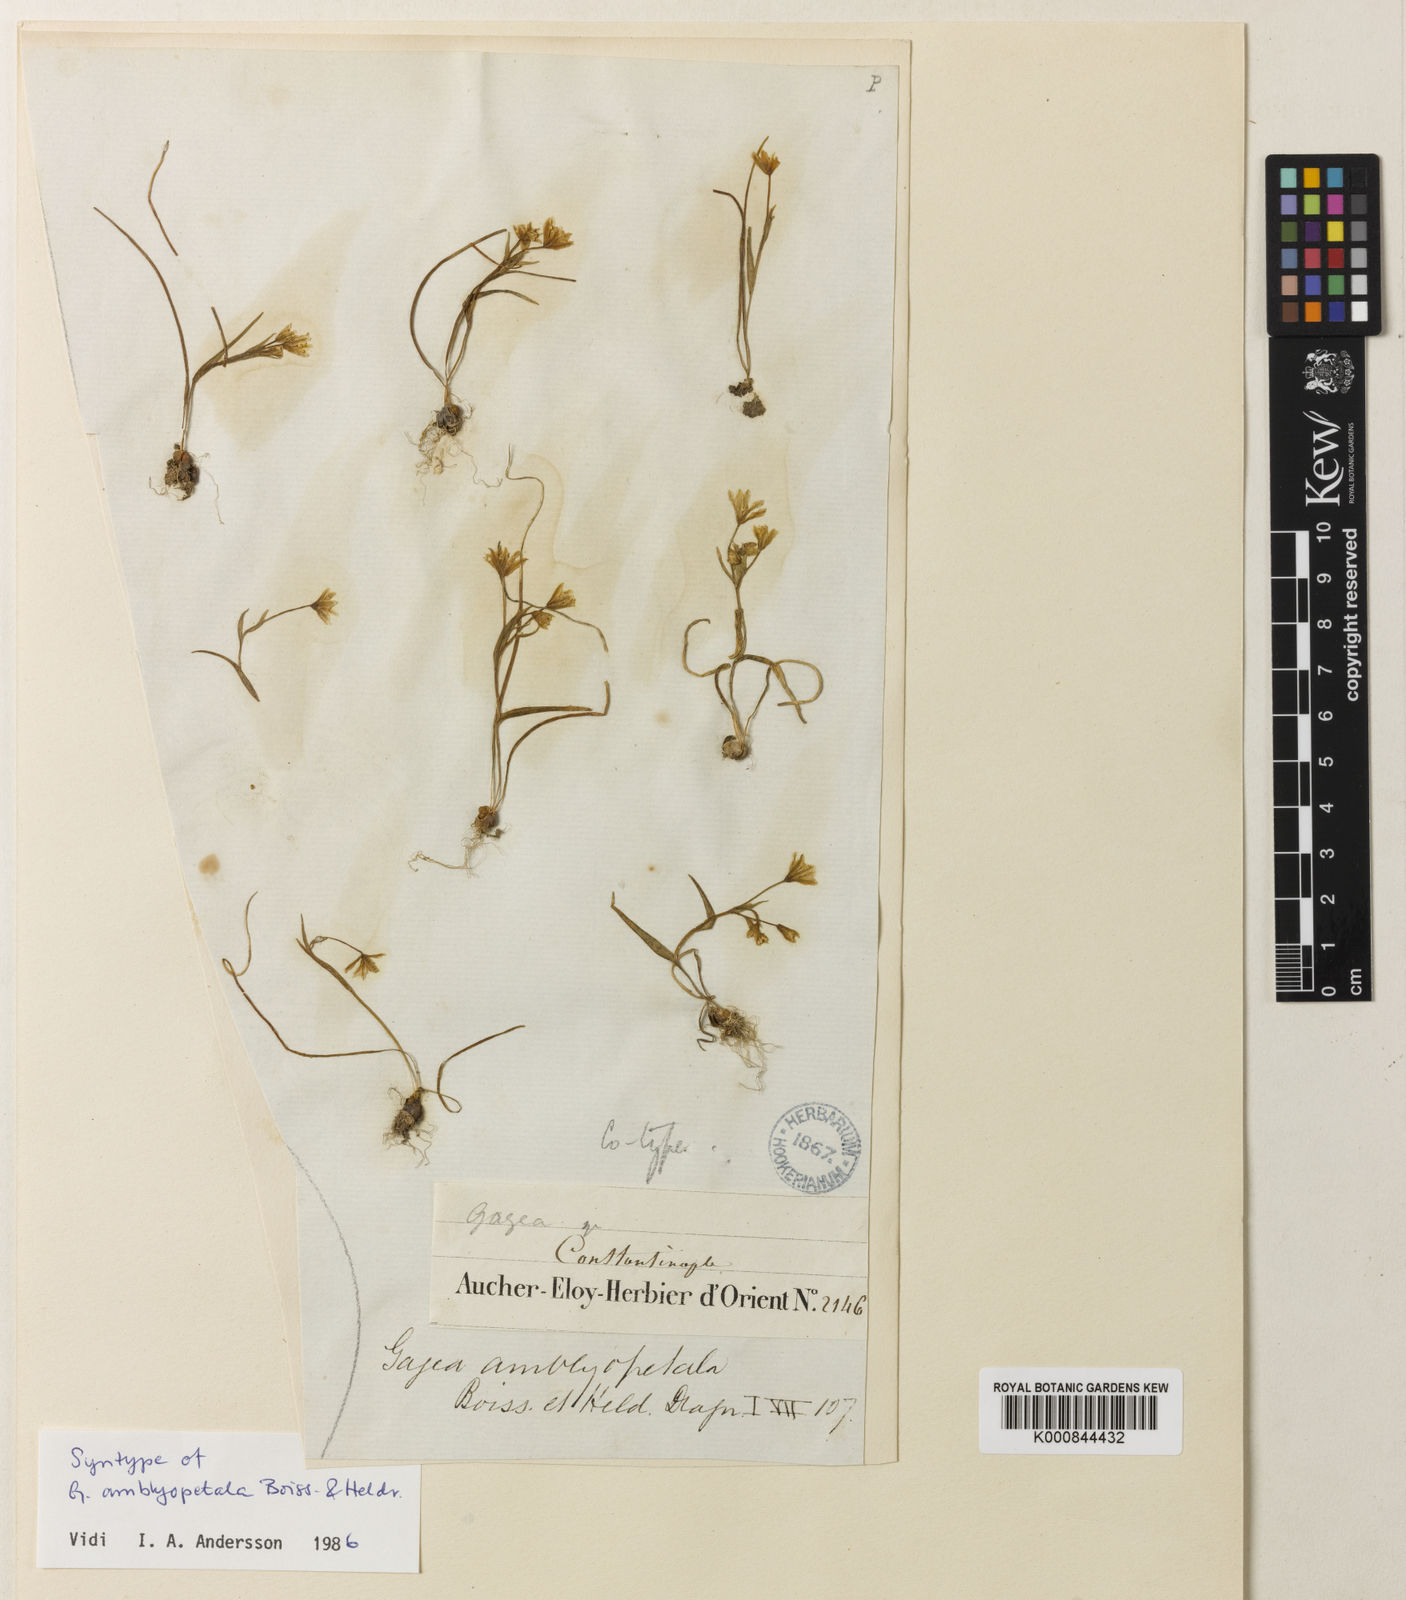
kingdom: Plantae
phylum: Tracheophyta
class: Liliopsida
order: Liliales
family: Liliaceae
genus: Gagea
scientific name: Gagea amblyopetala
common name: Blunt-flowered gagea
